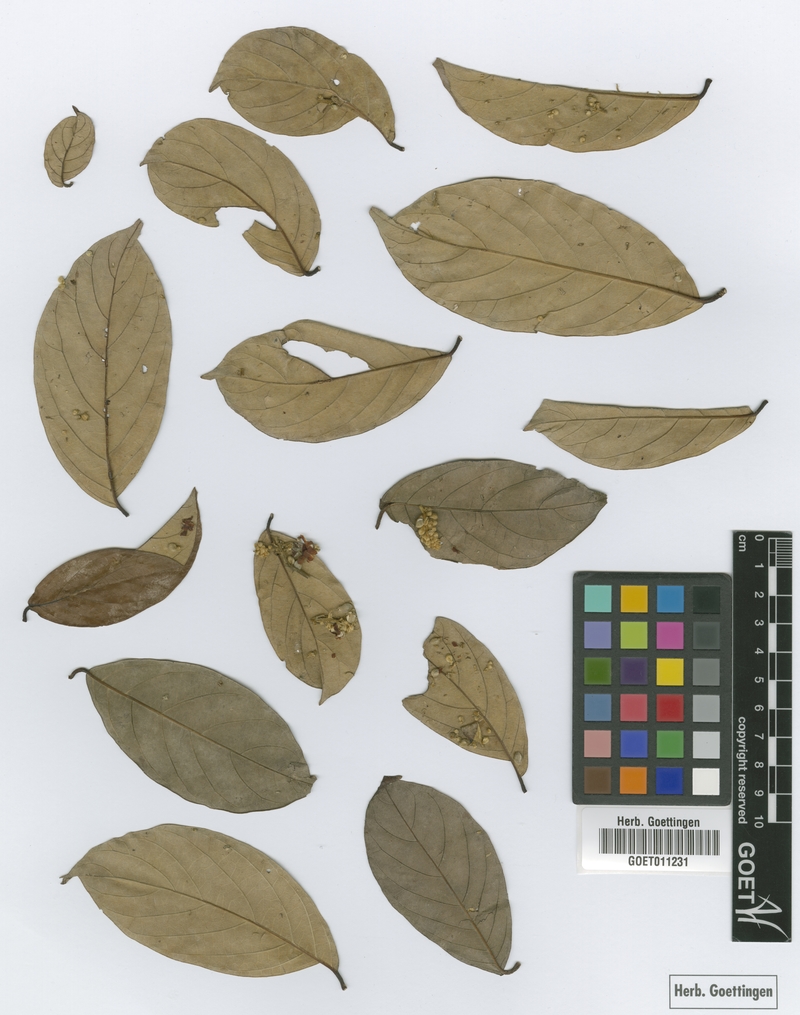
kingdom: Plantae
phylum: Tracheophyta
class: Magnoliopsida
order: Malpighiales
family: Trigoniaceae
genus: Trigonia
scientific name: Trigonia hypoleuca
